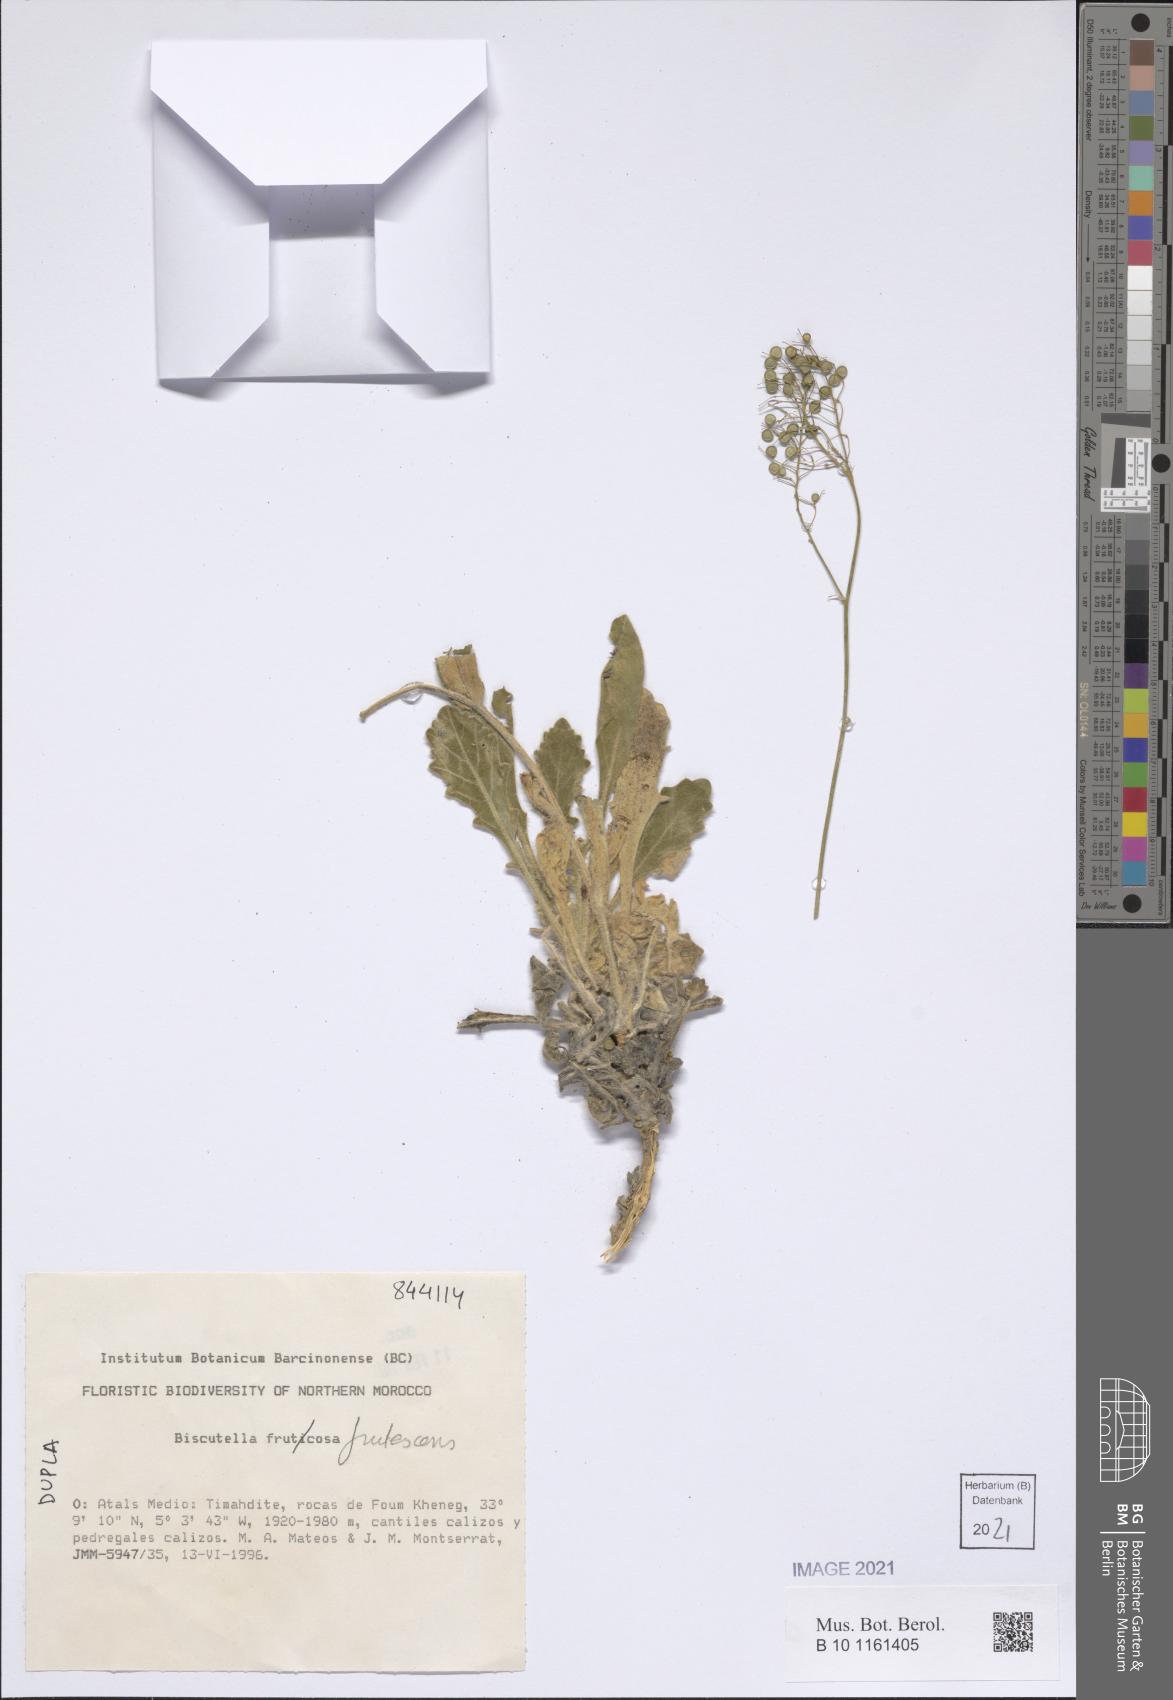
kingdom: Plantae
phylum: Tracheophyta
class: Magnoliopsida
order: Brassicales
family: Brassicaceae
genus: Biscutella
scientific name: Biscutella frutescens
